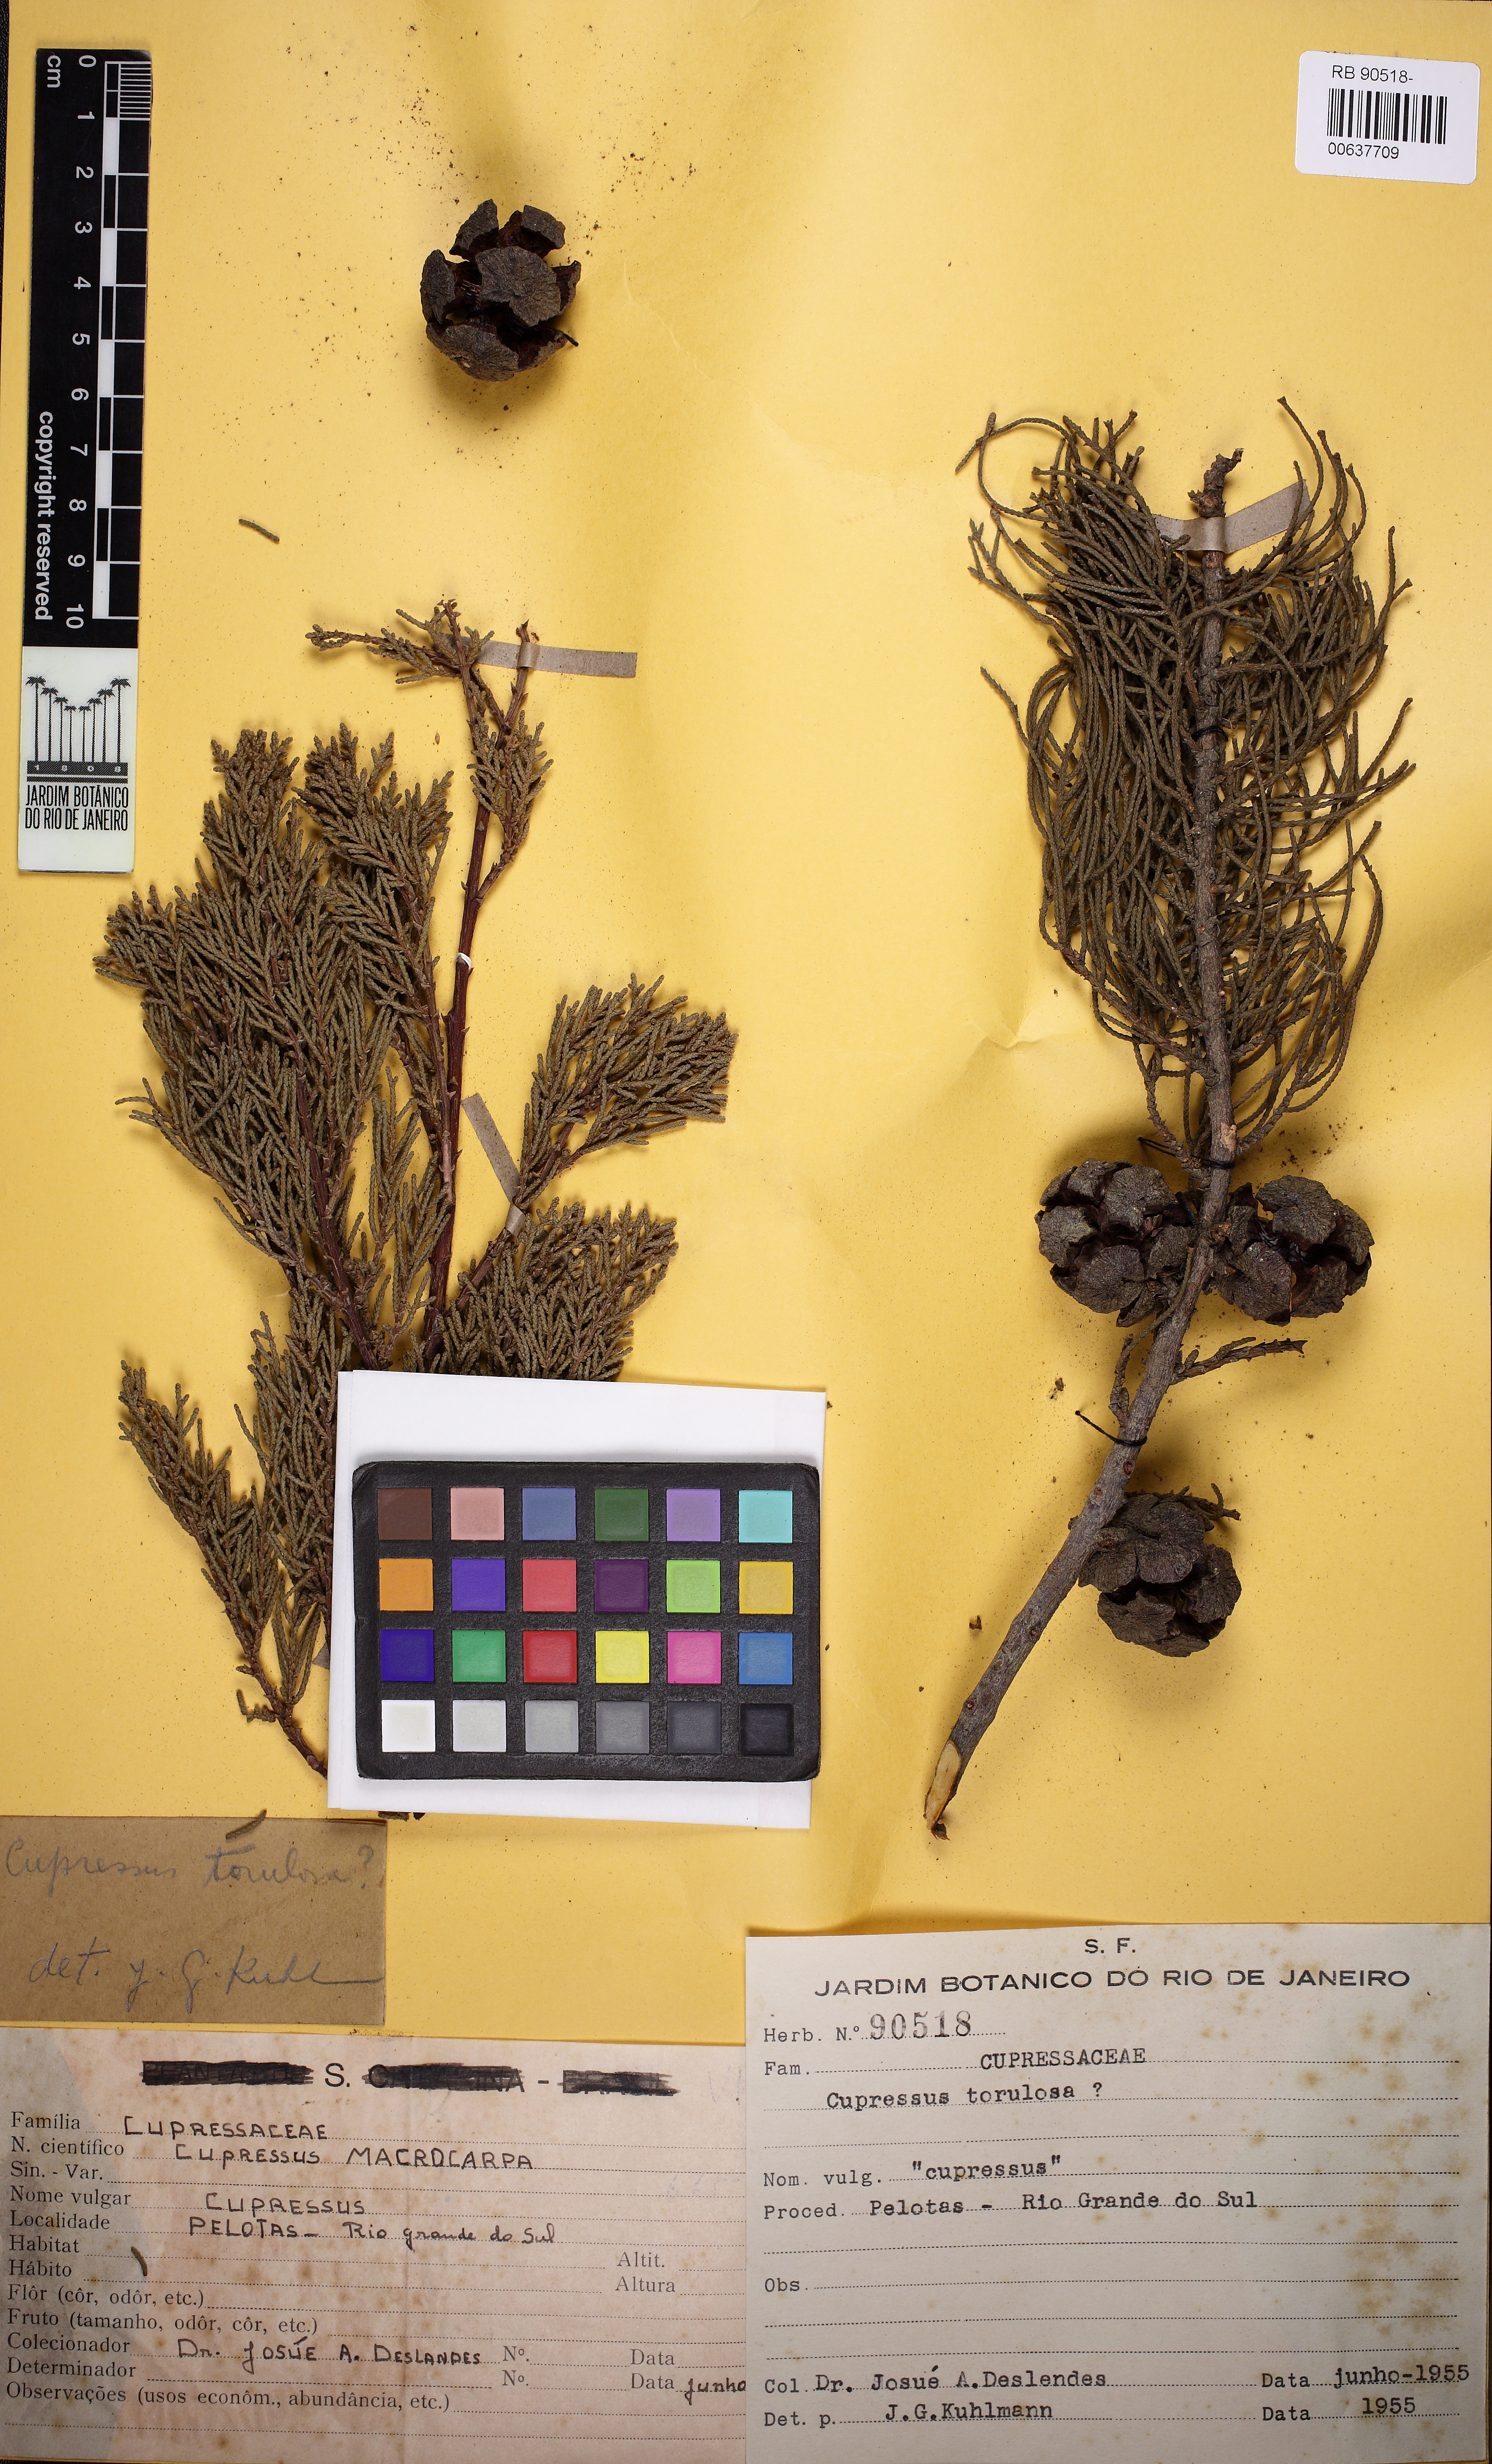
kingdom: Plantae
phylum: Tracheophyta
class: Pinopsida
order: Pinales
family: Cupressaceae
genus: Cupressus
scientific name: Cupressus torulosa
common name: Himalayan cypress
